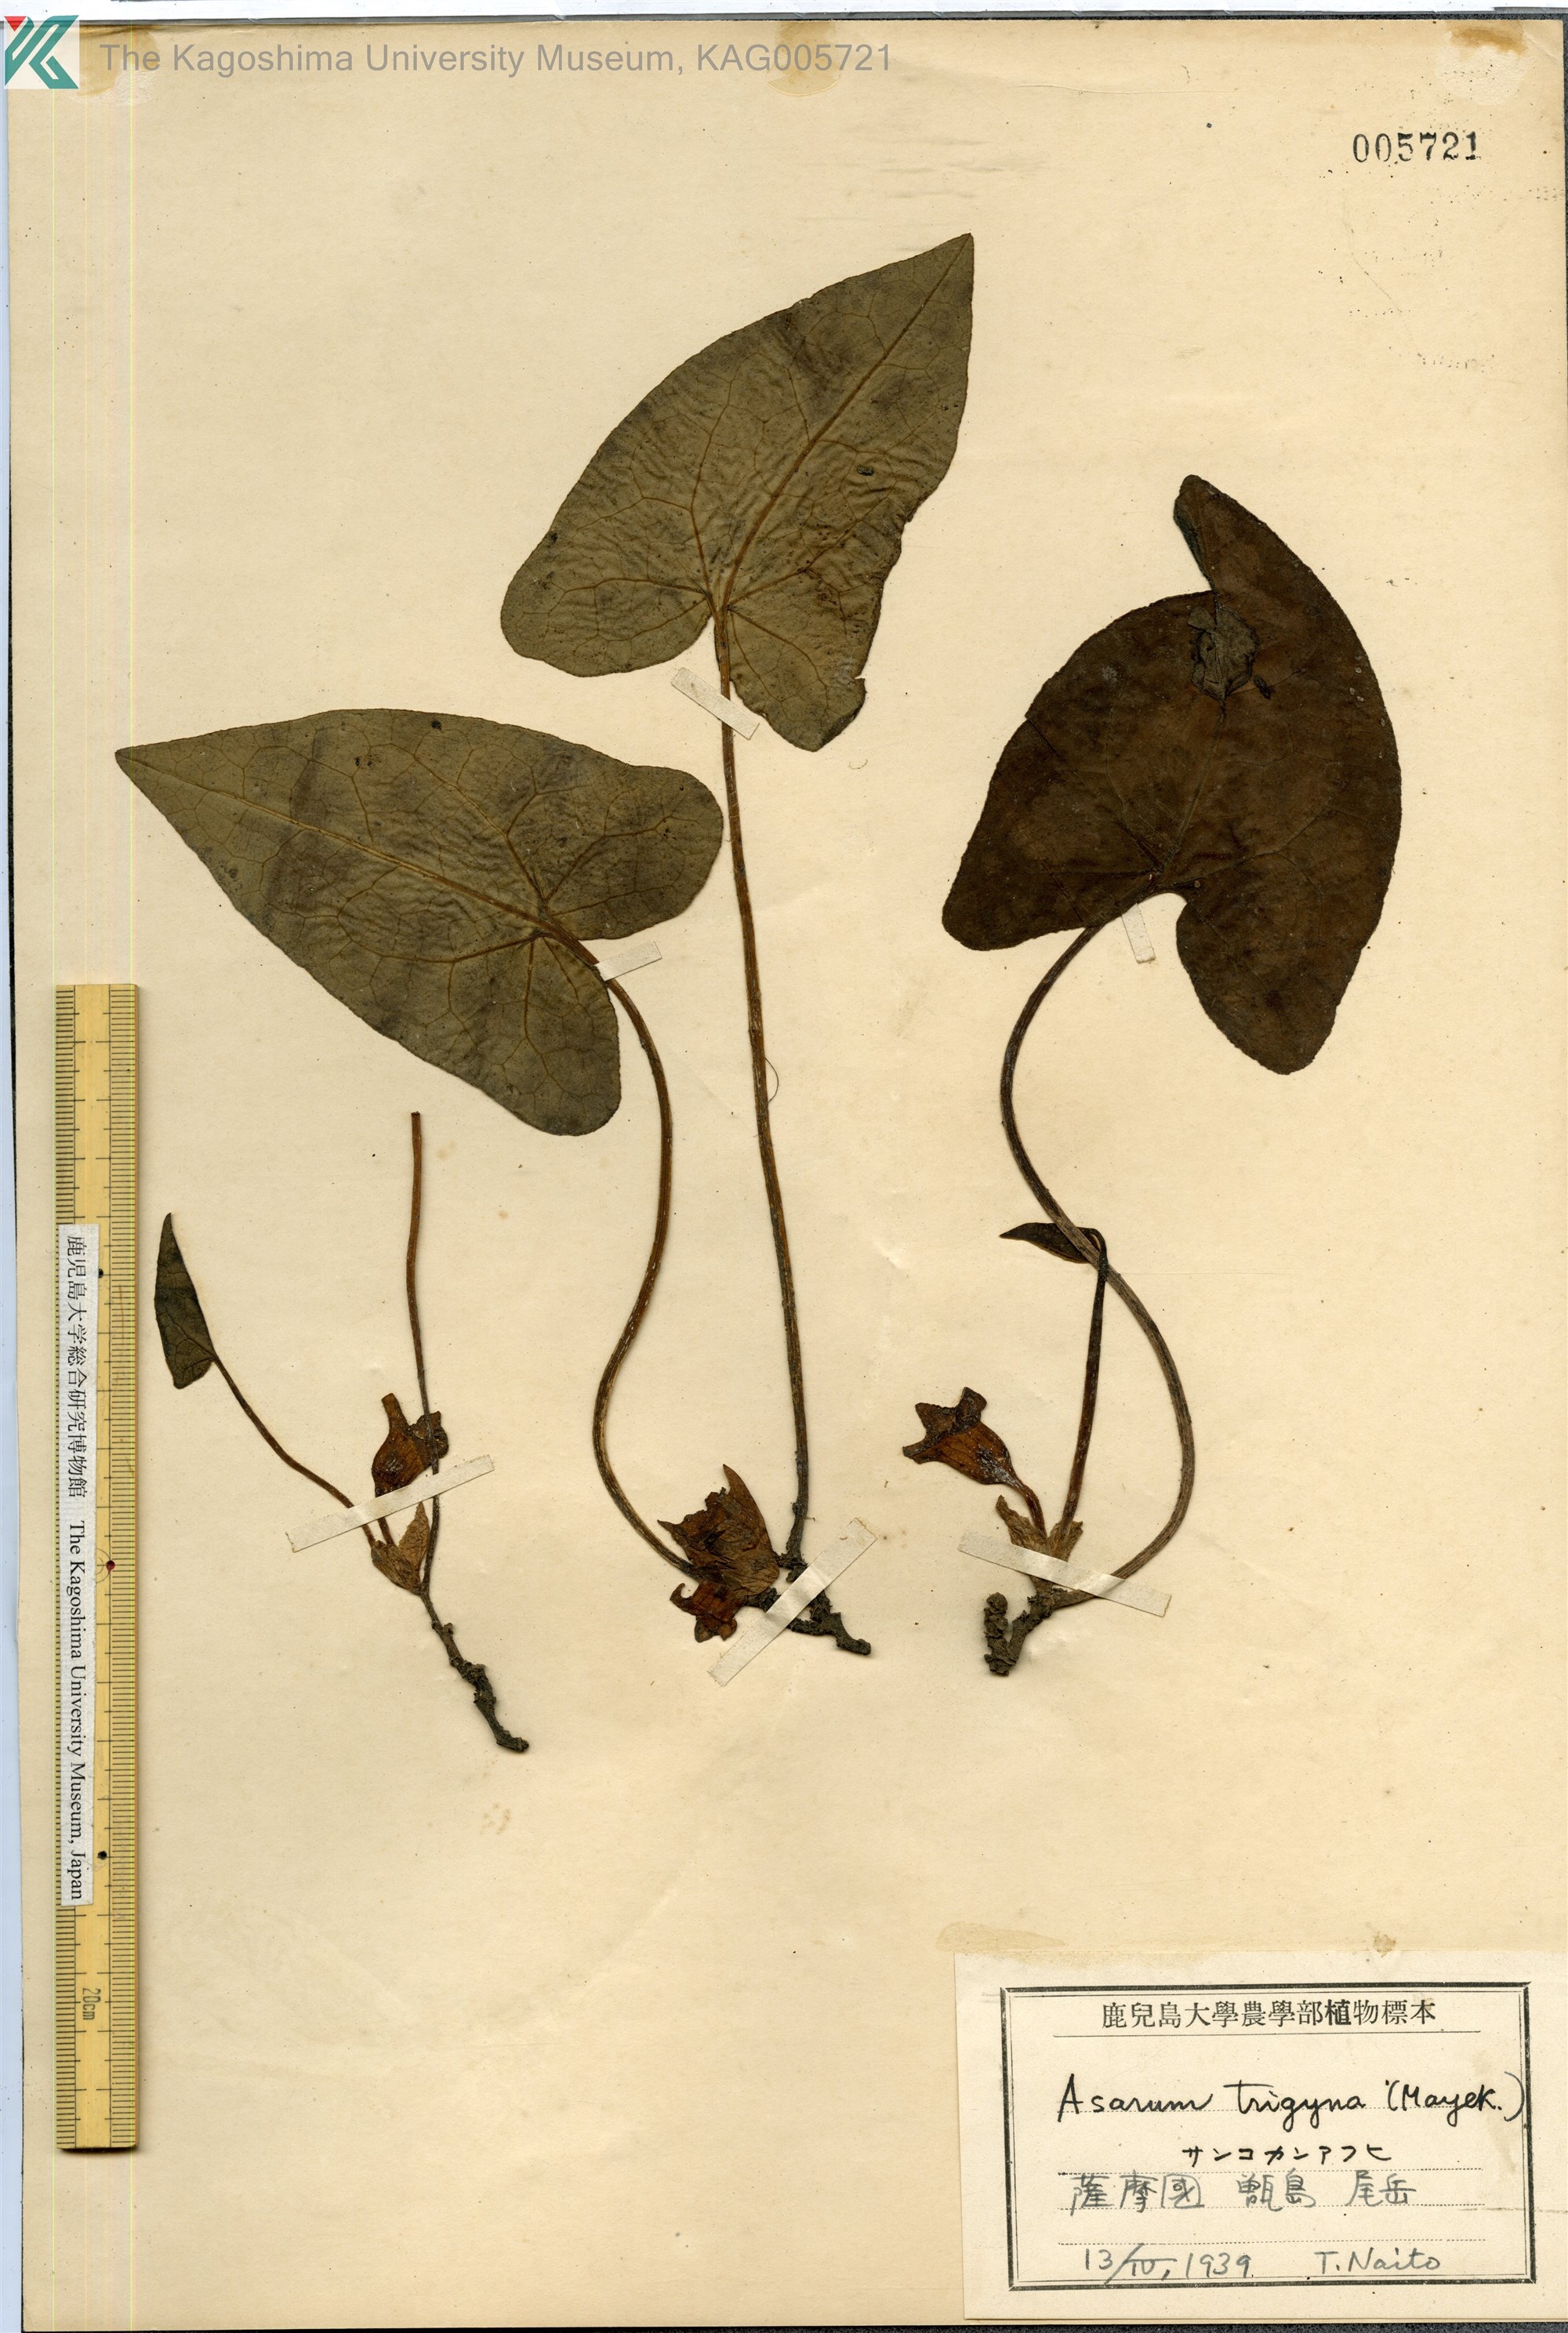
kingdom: Plantae
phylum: Tracheophyta
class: Magnoliopsida
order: Piperales
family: Aristolochiaceae
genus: Asarum
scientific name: Asarum trigynum
